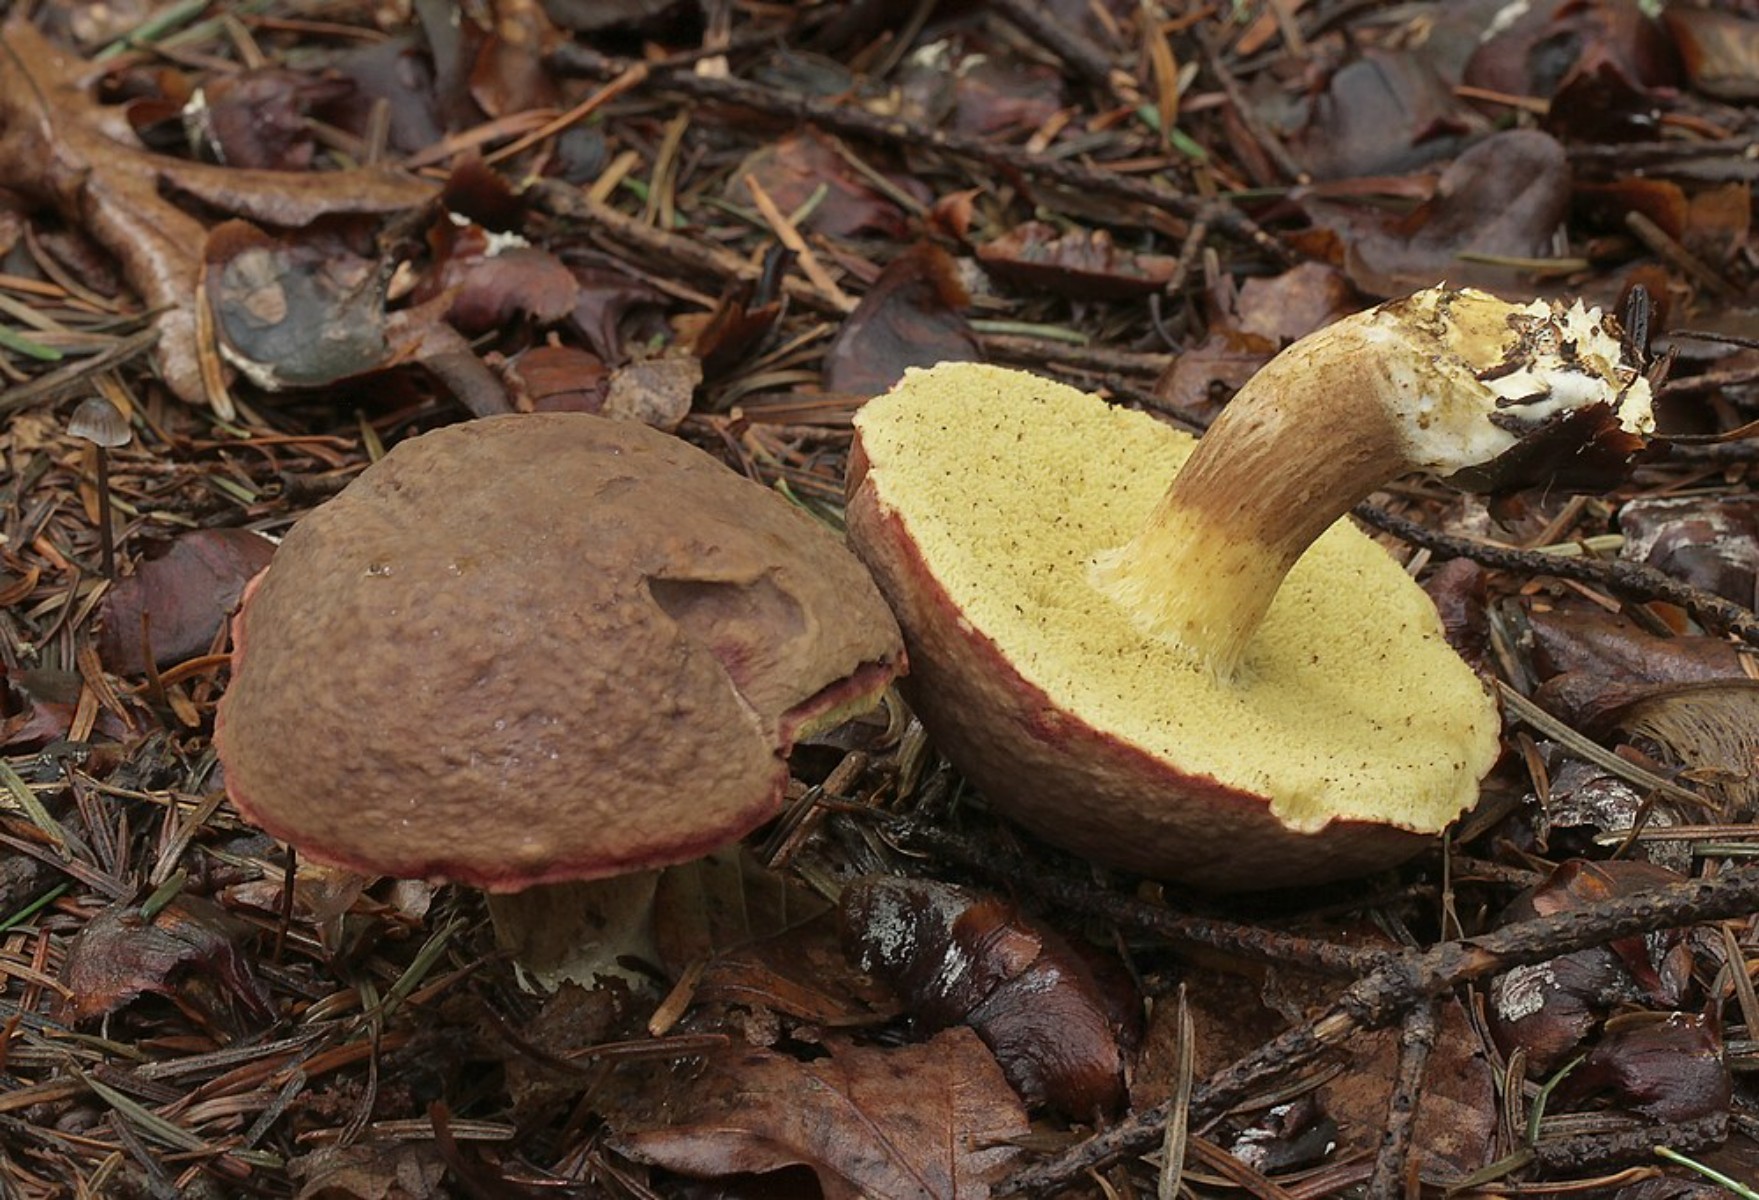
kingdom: Fungi
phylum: Basidiomycota
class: Agaricomycetes
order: Boletales
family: Boletaceae
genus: Xerocomellus
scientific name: Xerocomellus pruinatus
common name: dugget rørhat
